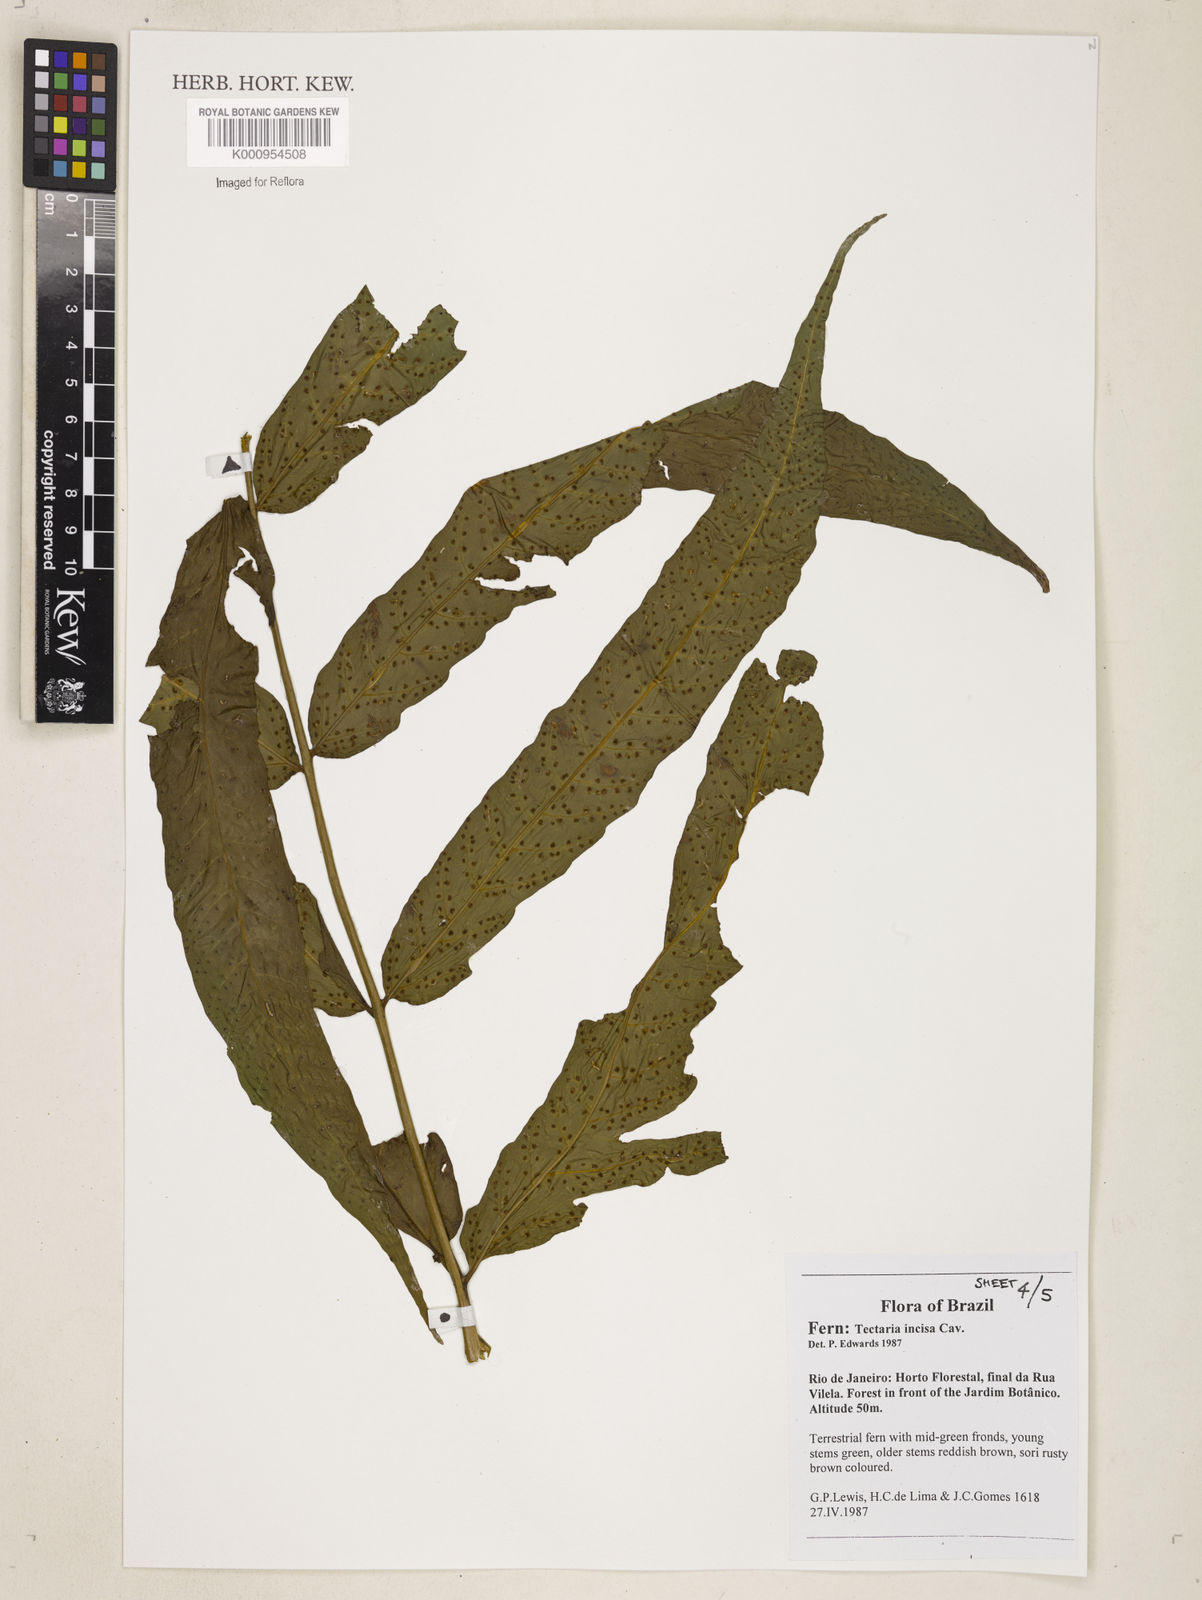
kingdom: Plantae
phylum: Tracheophyta
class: Polypodiopsida
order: Polypodiales
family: Tectariaceae
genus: Tectaria
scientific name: Tectaria incisa
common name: Incised halberd fern
